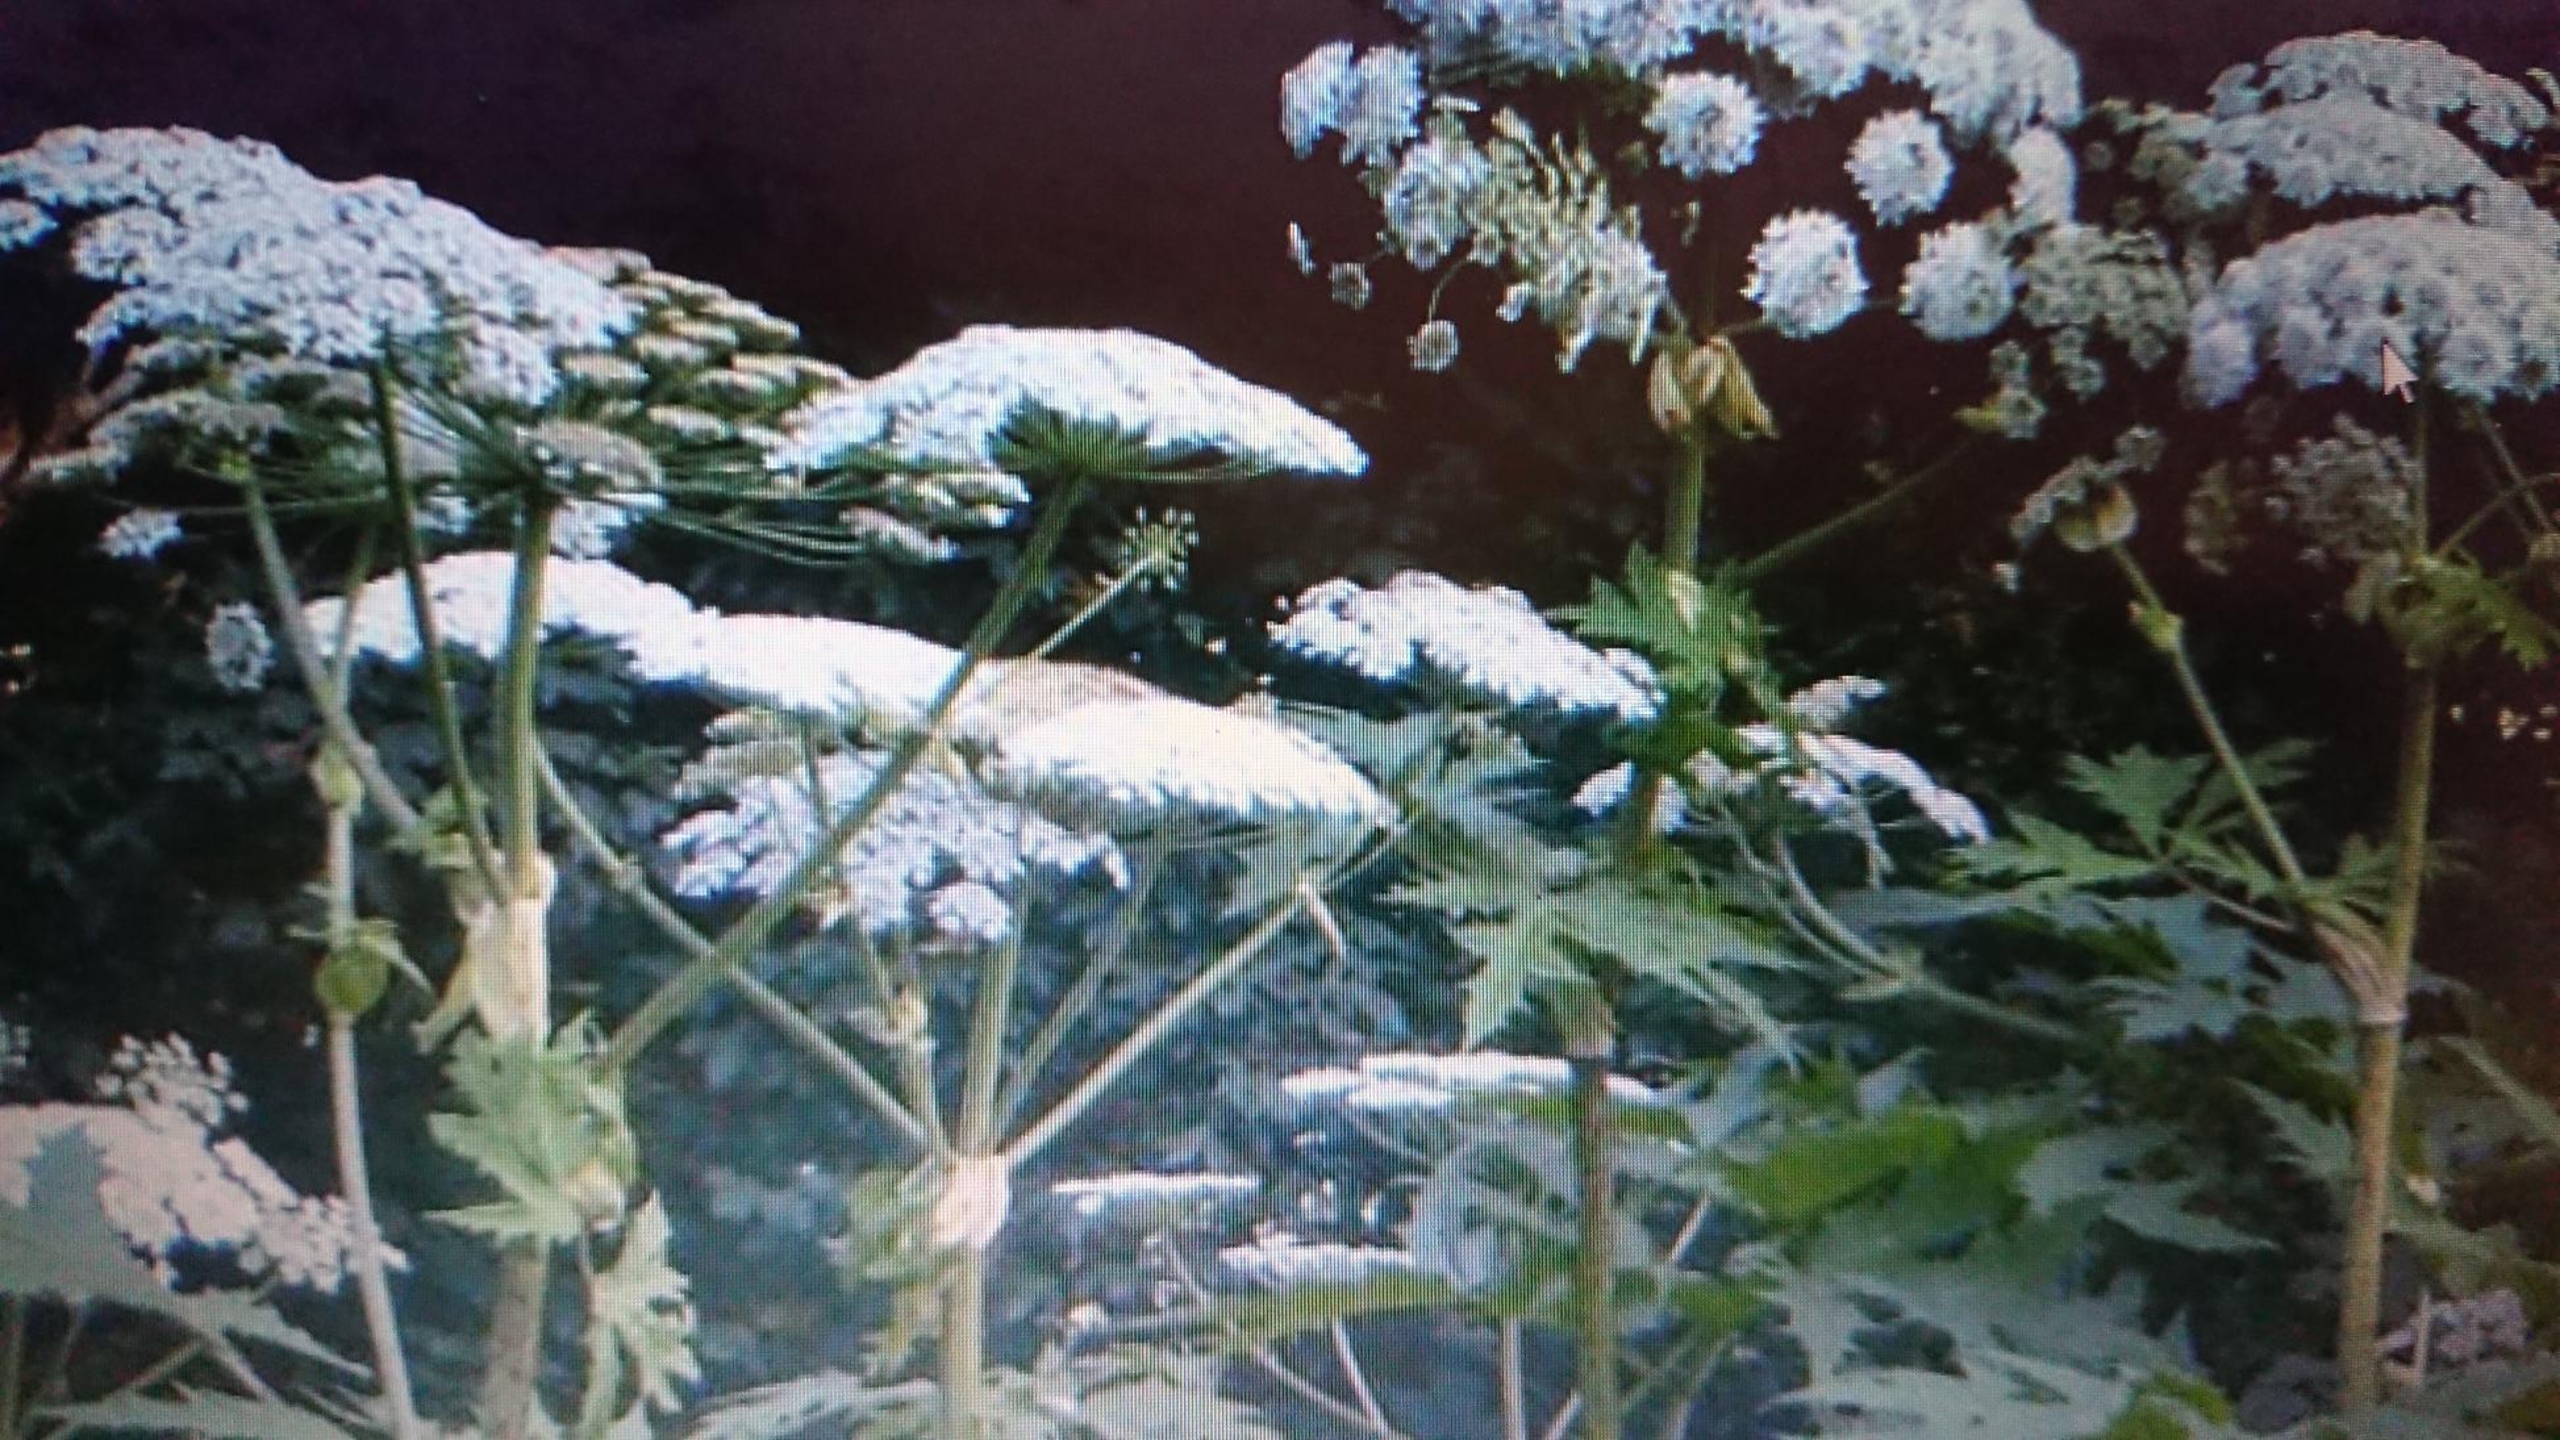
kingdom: Plantae
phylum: Tracheophyta
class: Magnoliopsida
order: Apiales
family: Apiaceae
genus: Heracleum
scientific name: Heracleum mantegazzianum
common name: Kæmpe-bjørneklo
